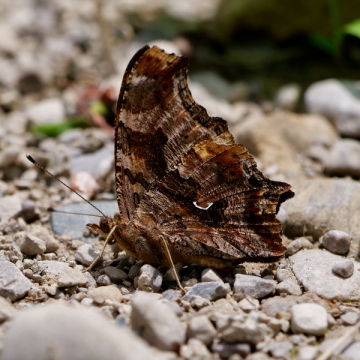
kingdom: Animalia
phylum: Arthropoda
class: Insecta
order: Lepidoptera
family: Nymphalidae
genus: Polygonia
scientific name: Polygonia comma
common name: Eastern Comma
